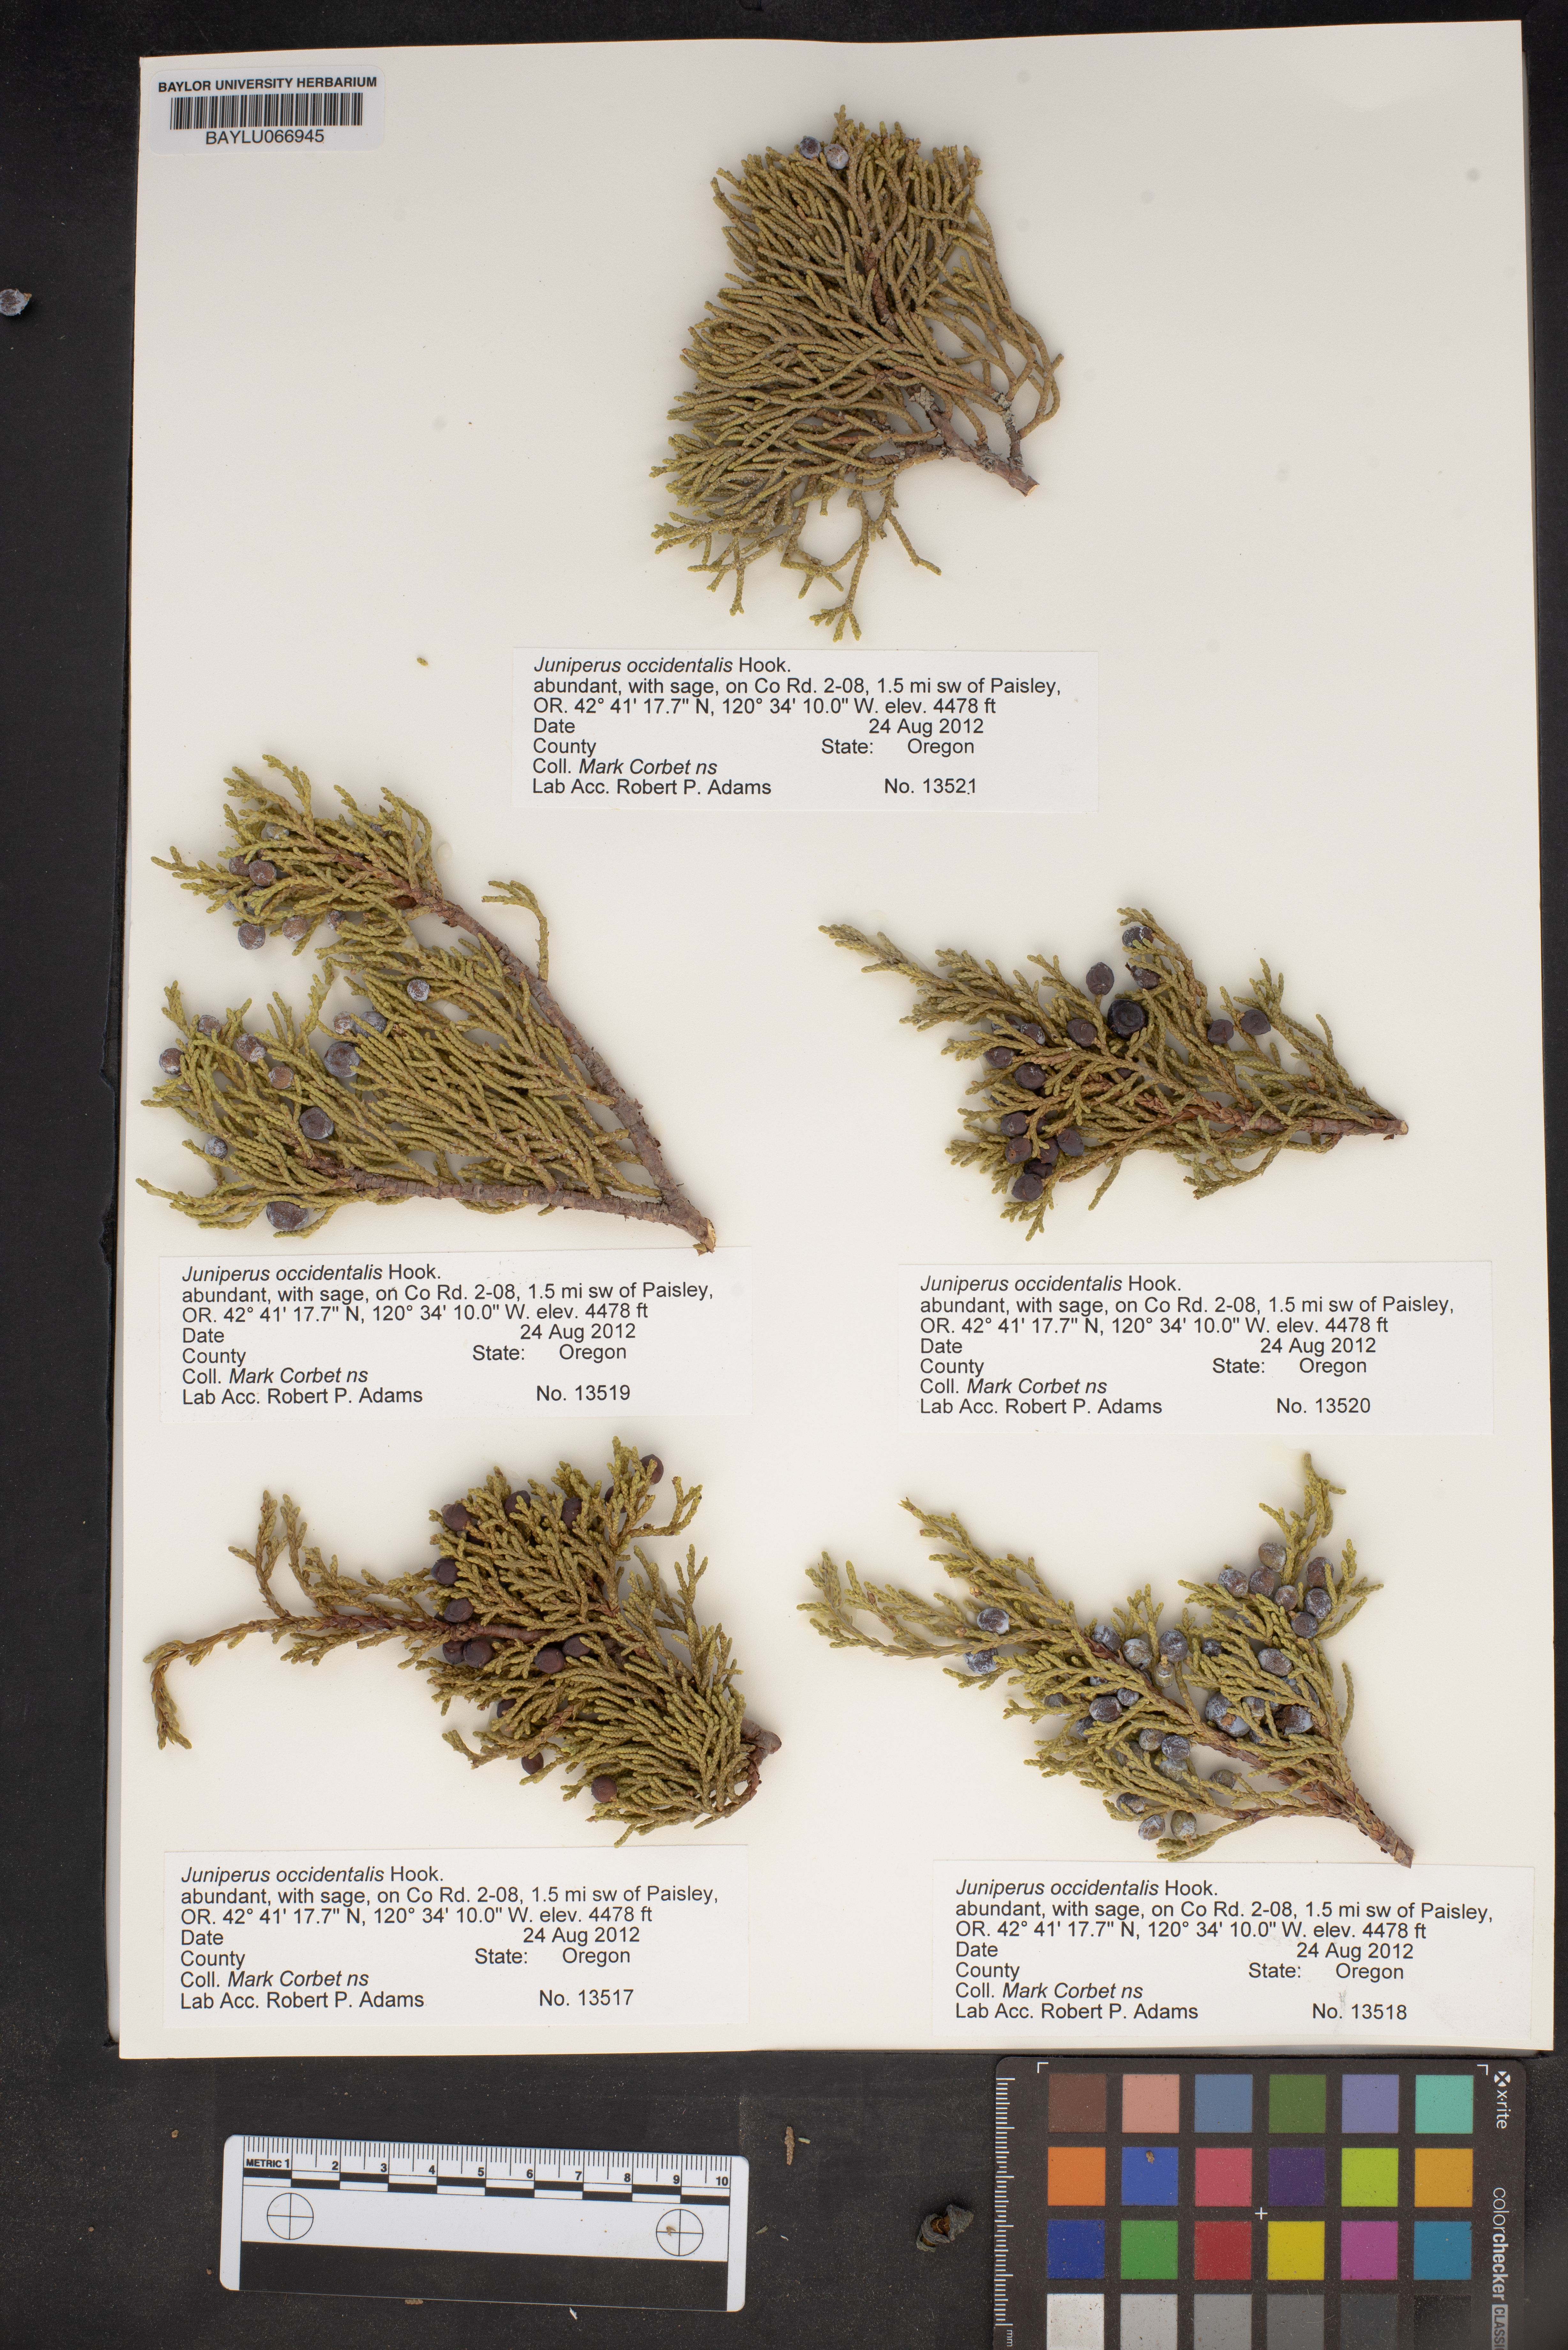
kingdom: Plantae
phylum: Tracheophyta
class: Pinopsida
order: Pinales
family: Cupressaceae
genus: Juniperus
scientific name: Juniperus occidentalis
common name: Western juniper
